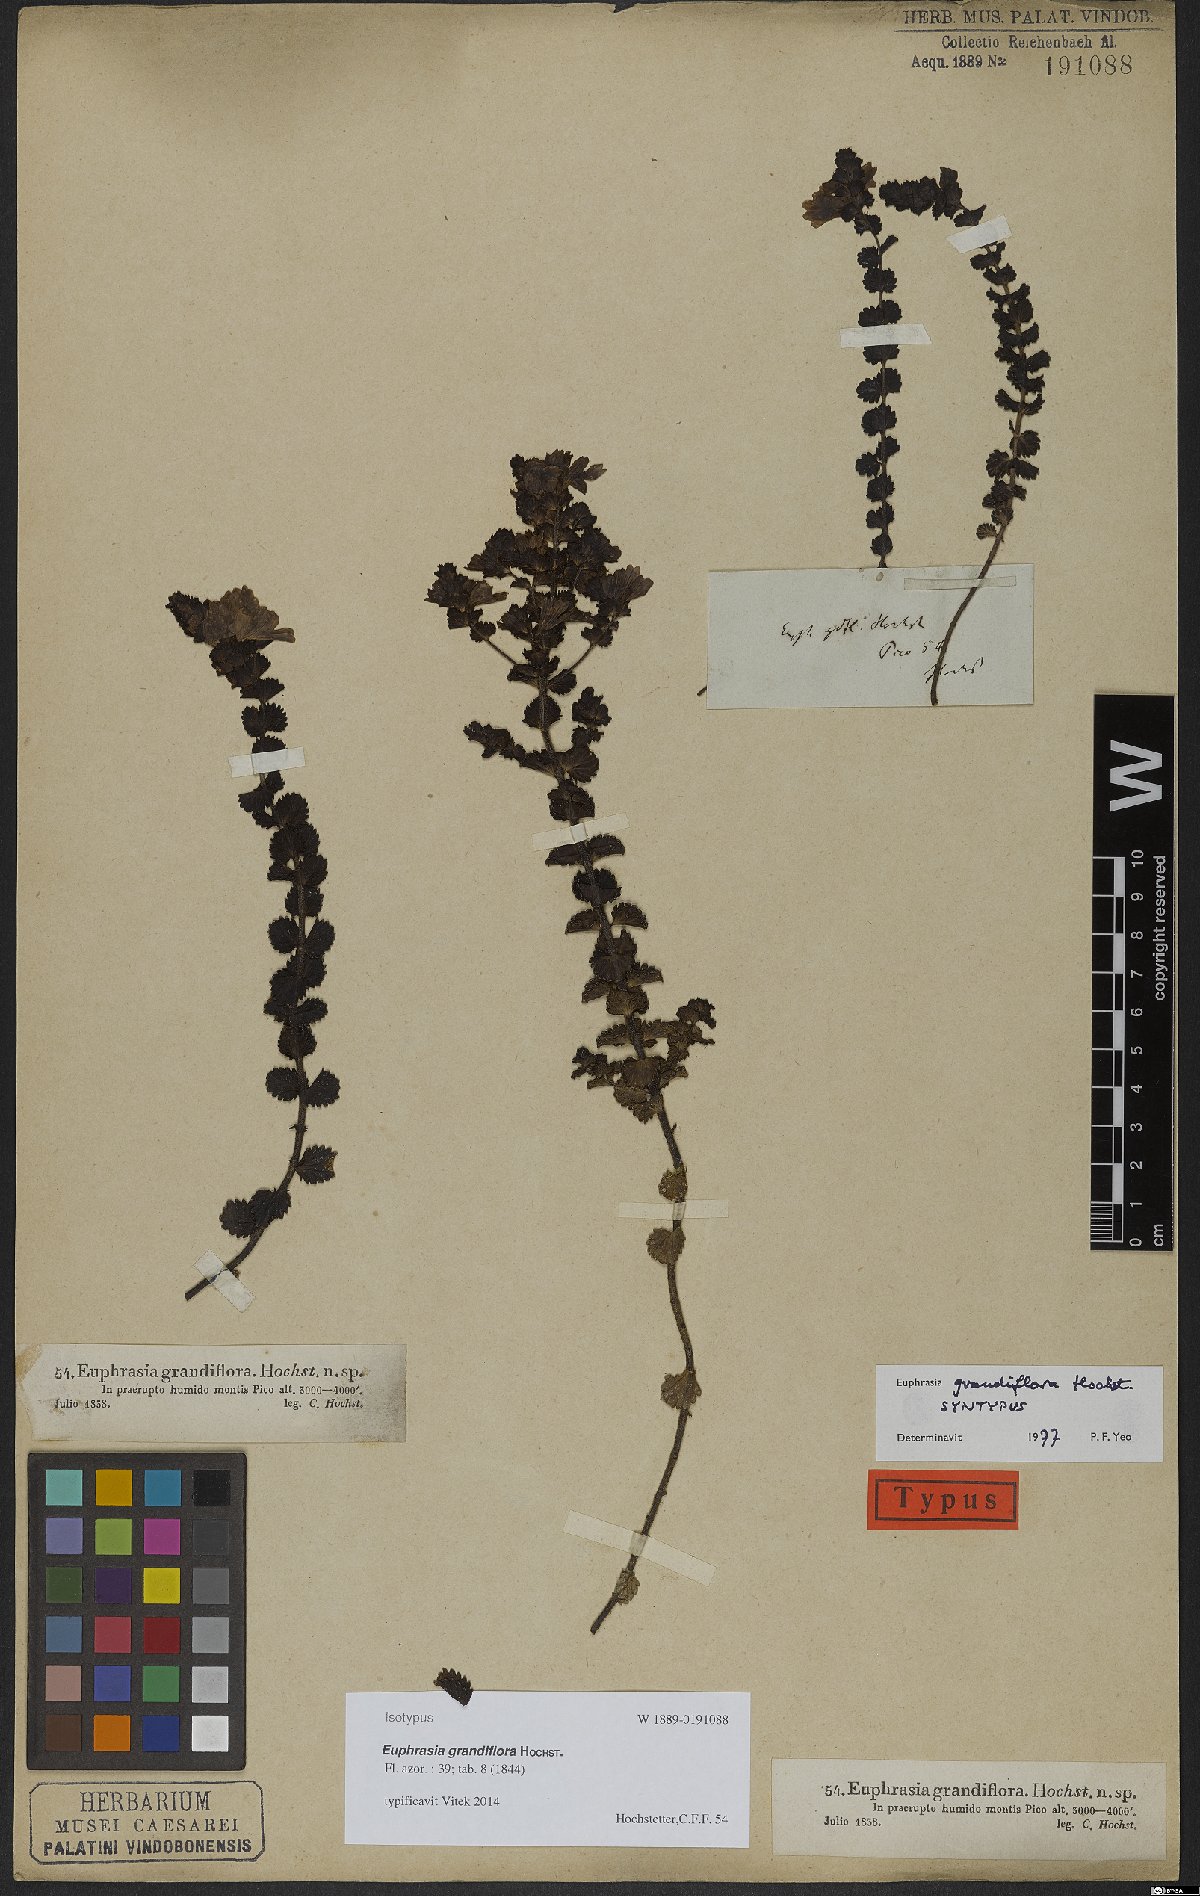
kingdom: Plantae
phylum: Tracheophyta
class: Magnoliopsida
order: Lamiales
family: Orobanchaceae
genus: Euphrasia
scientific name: Euphrasia grandiflora
